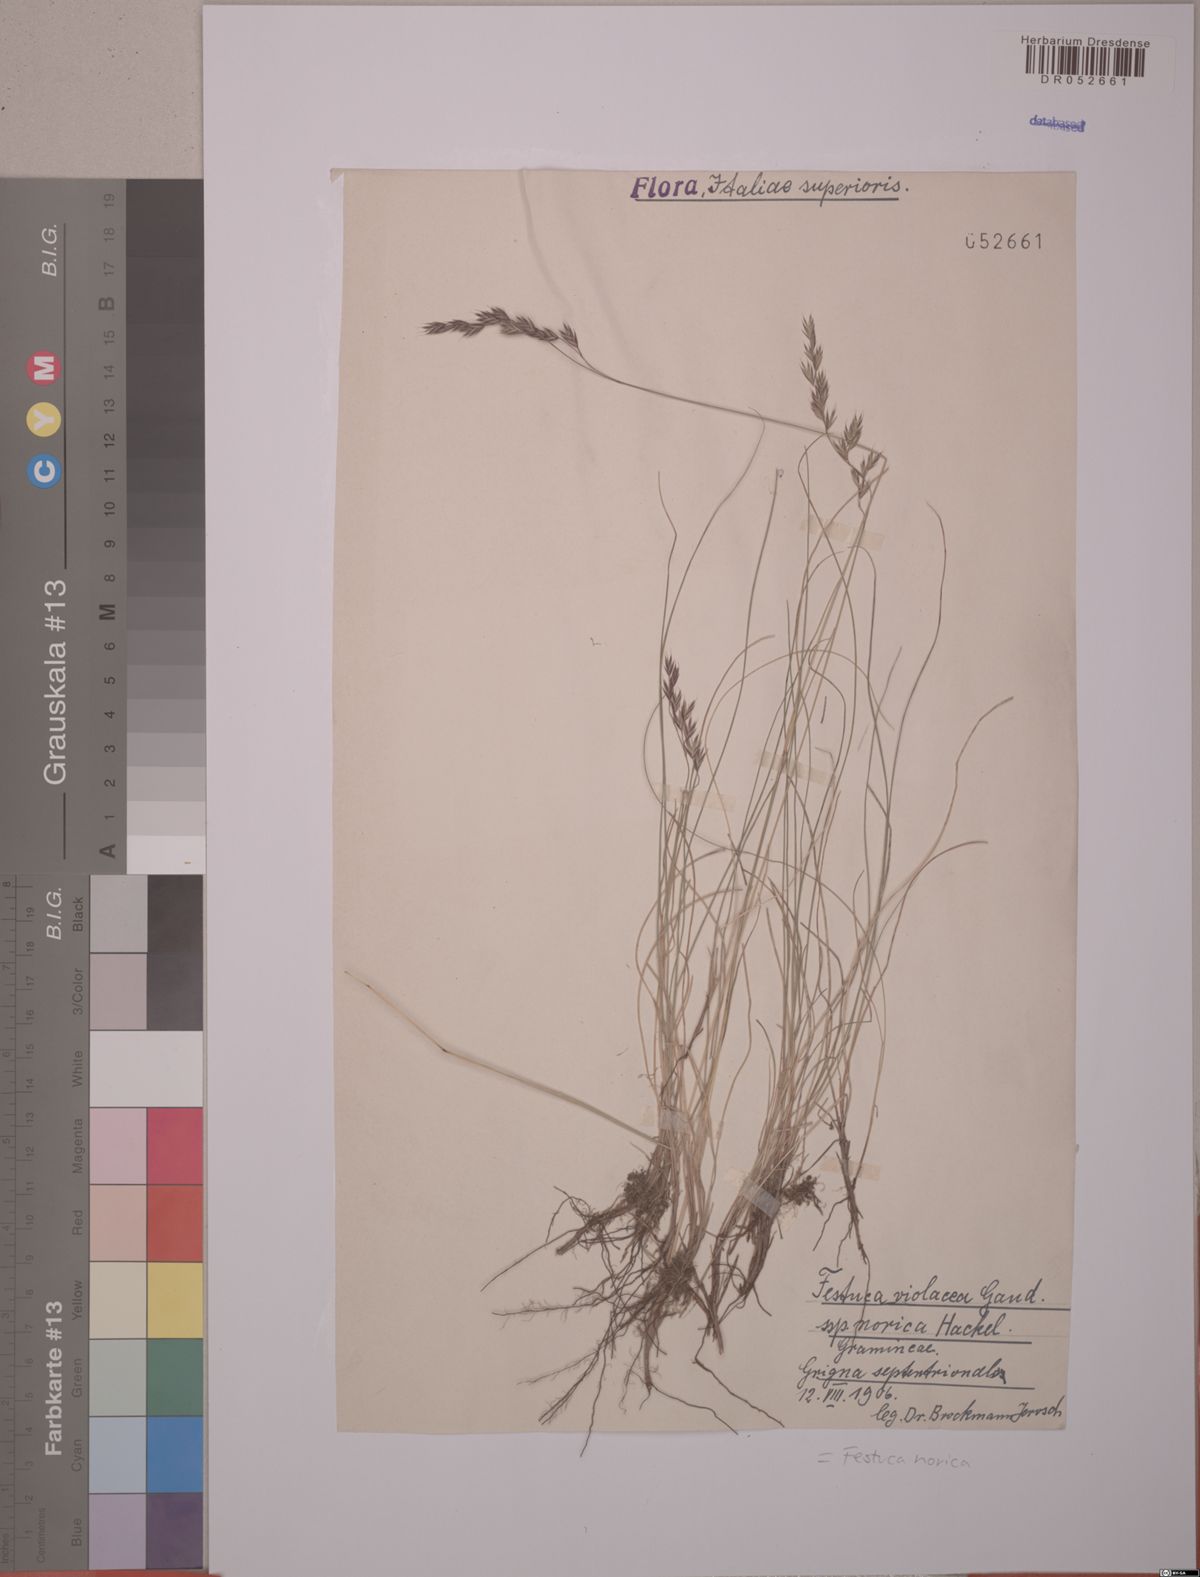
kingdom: Plantae
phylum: Tracheophyta
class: Liliopsida
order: Poales
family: Poaceae
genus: Festuca
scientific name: Festuca norica
